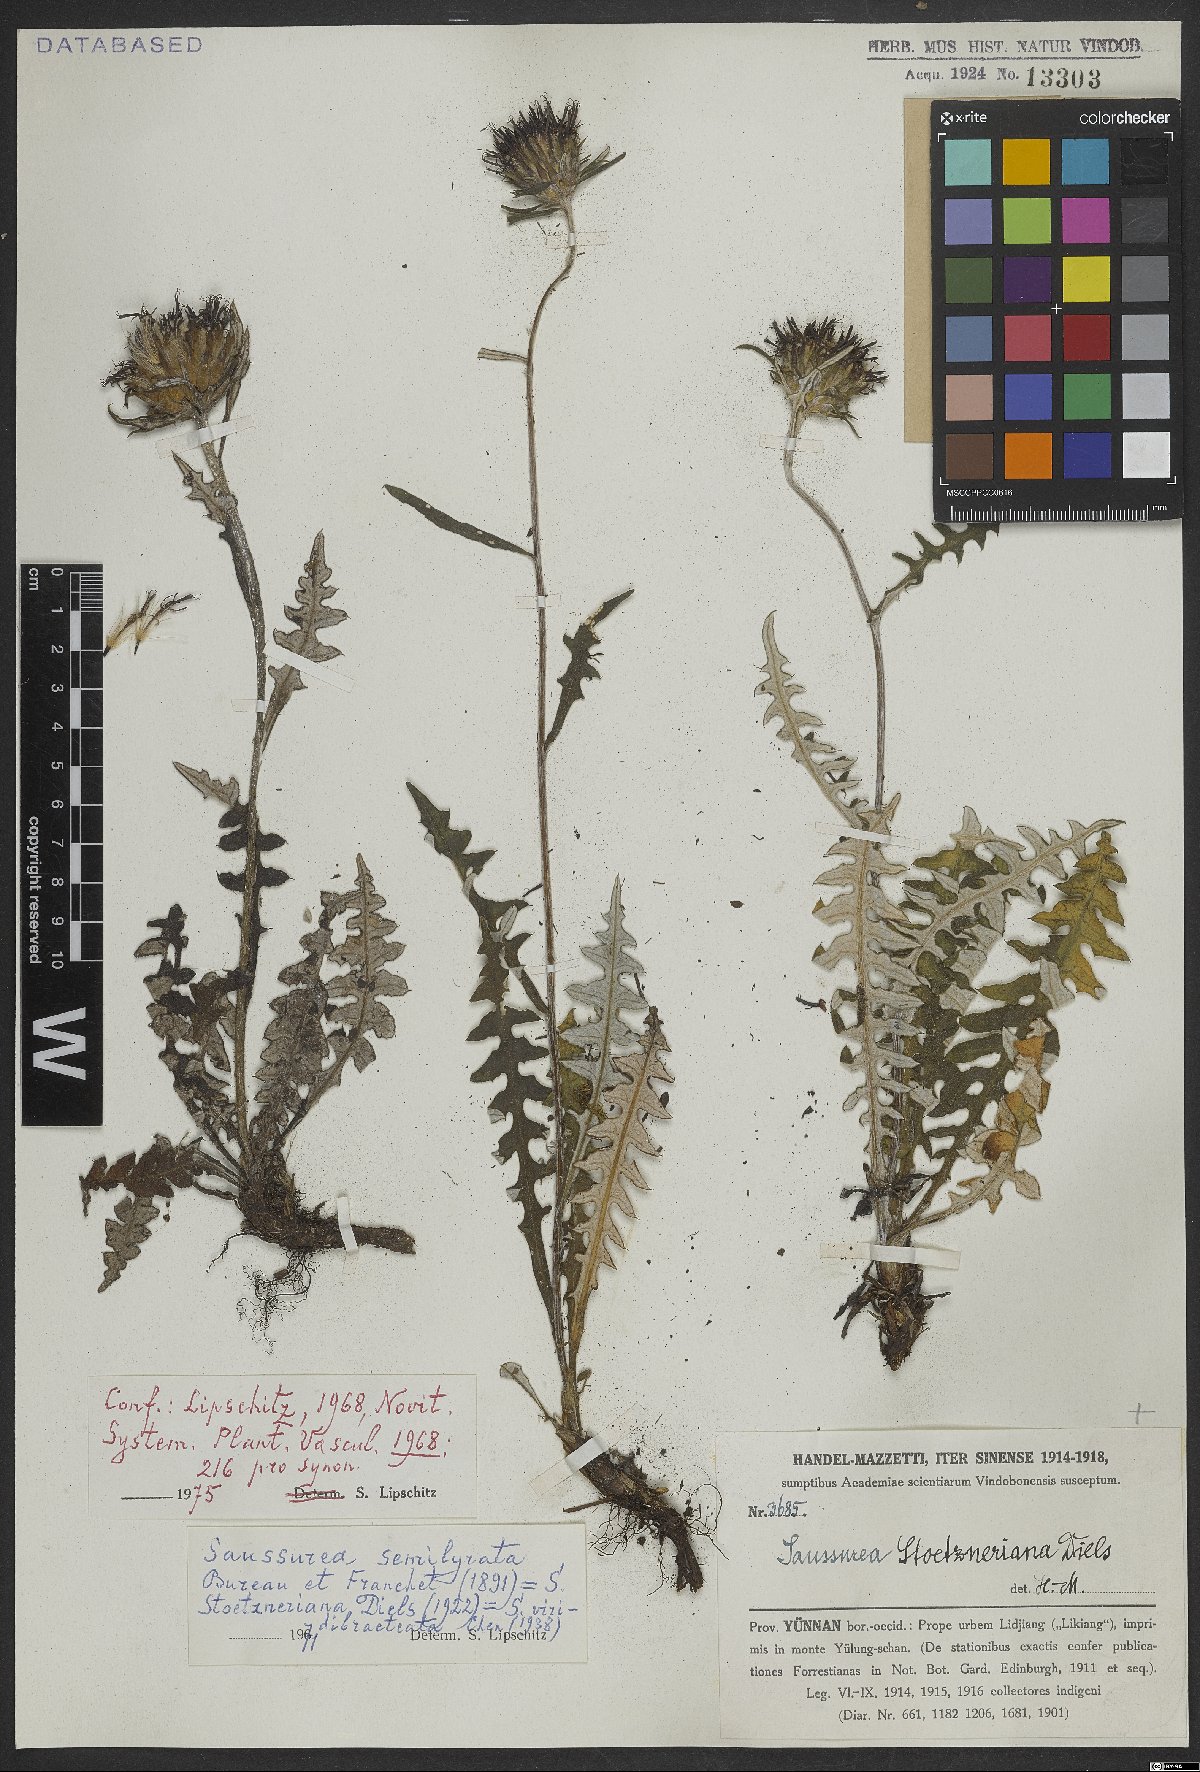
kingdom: Plantae
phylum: Tracheophyta
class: Magnoliopsida
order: Asterales
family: Asteraceae
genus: Saussurea
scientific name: Saussurea semilyrata
